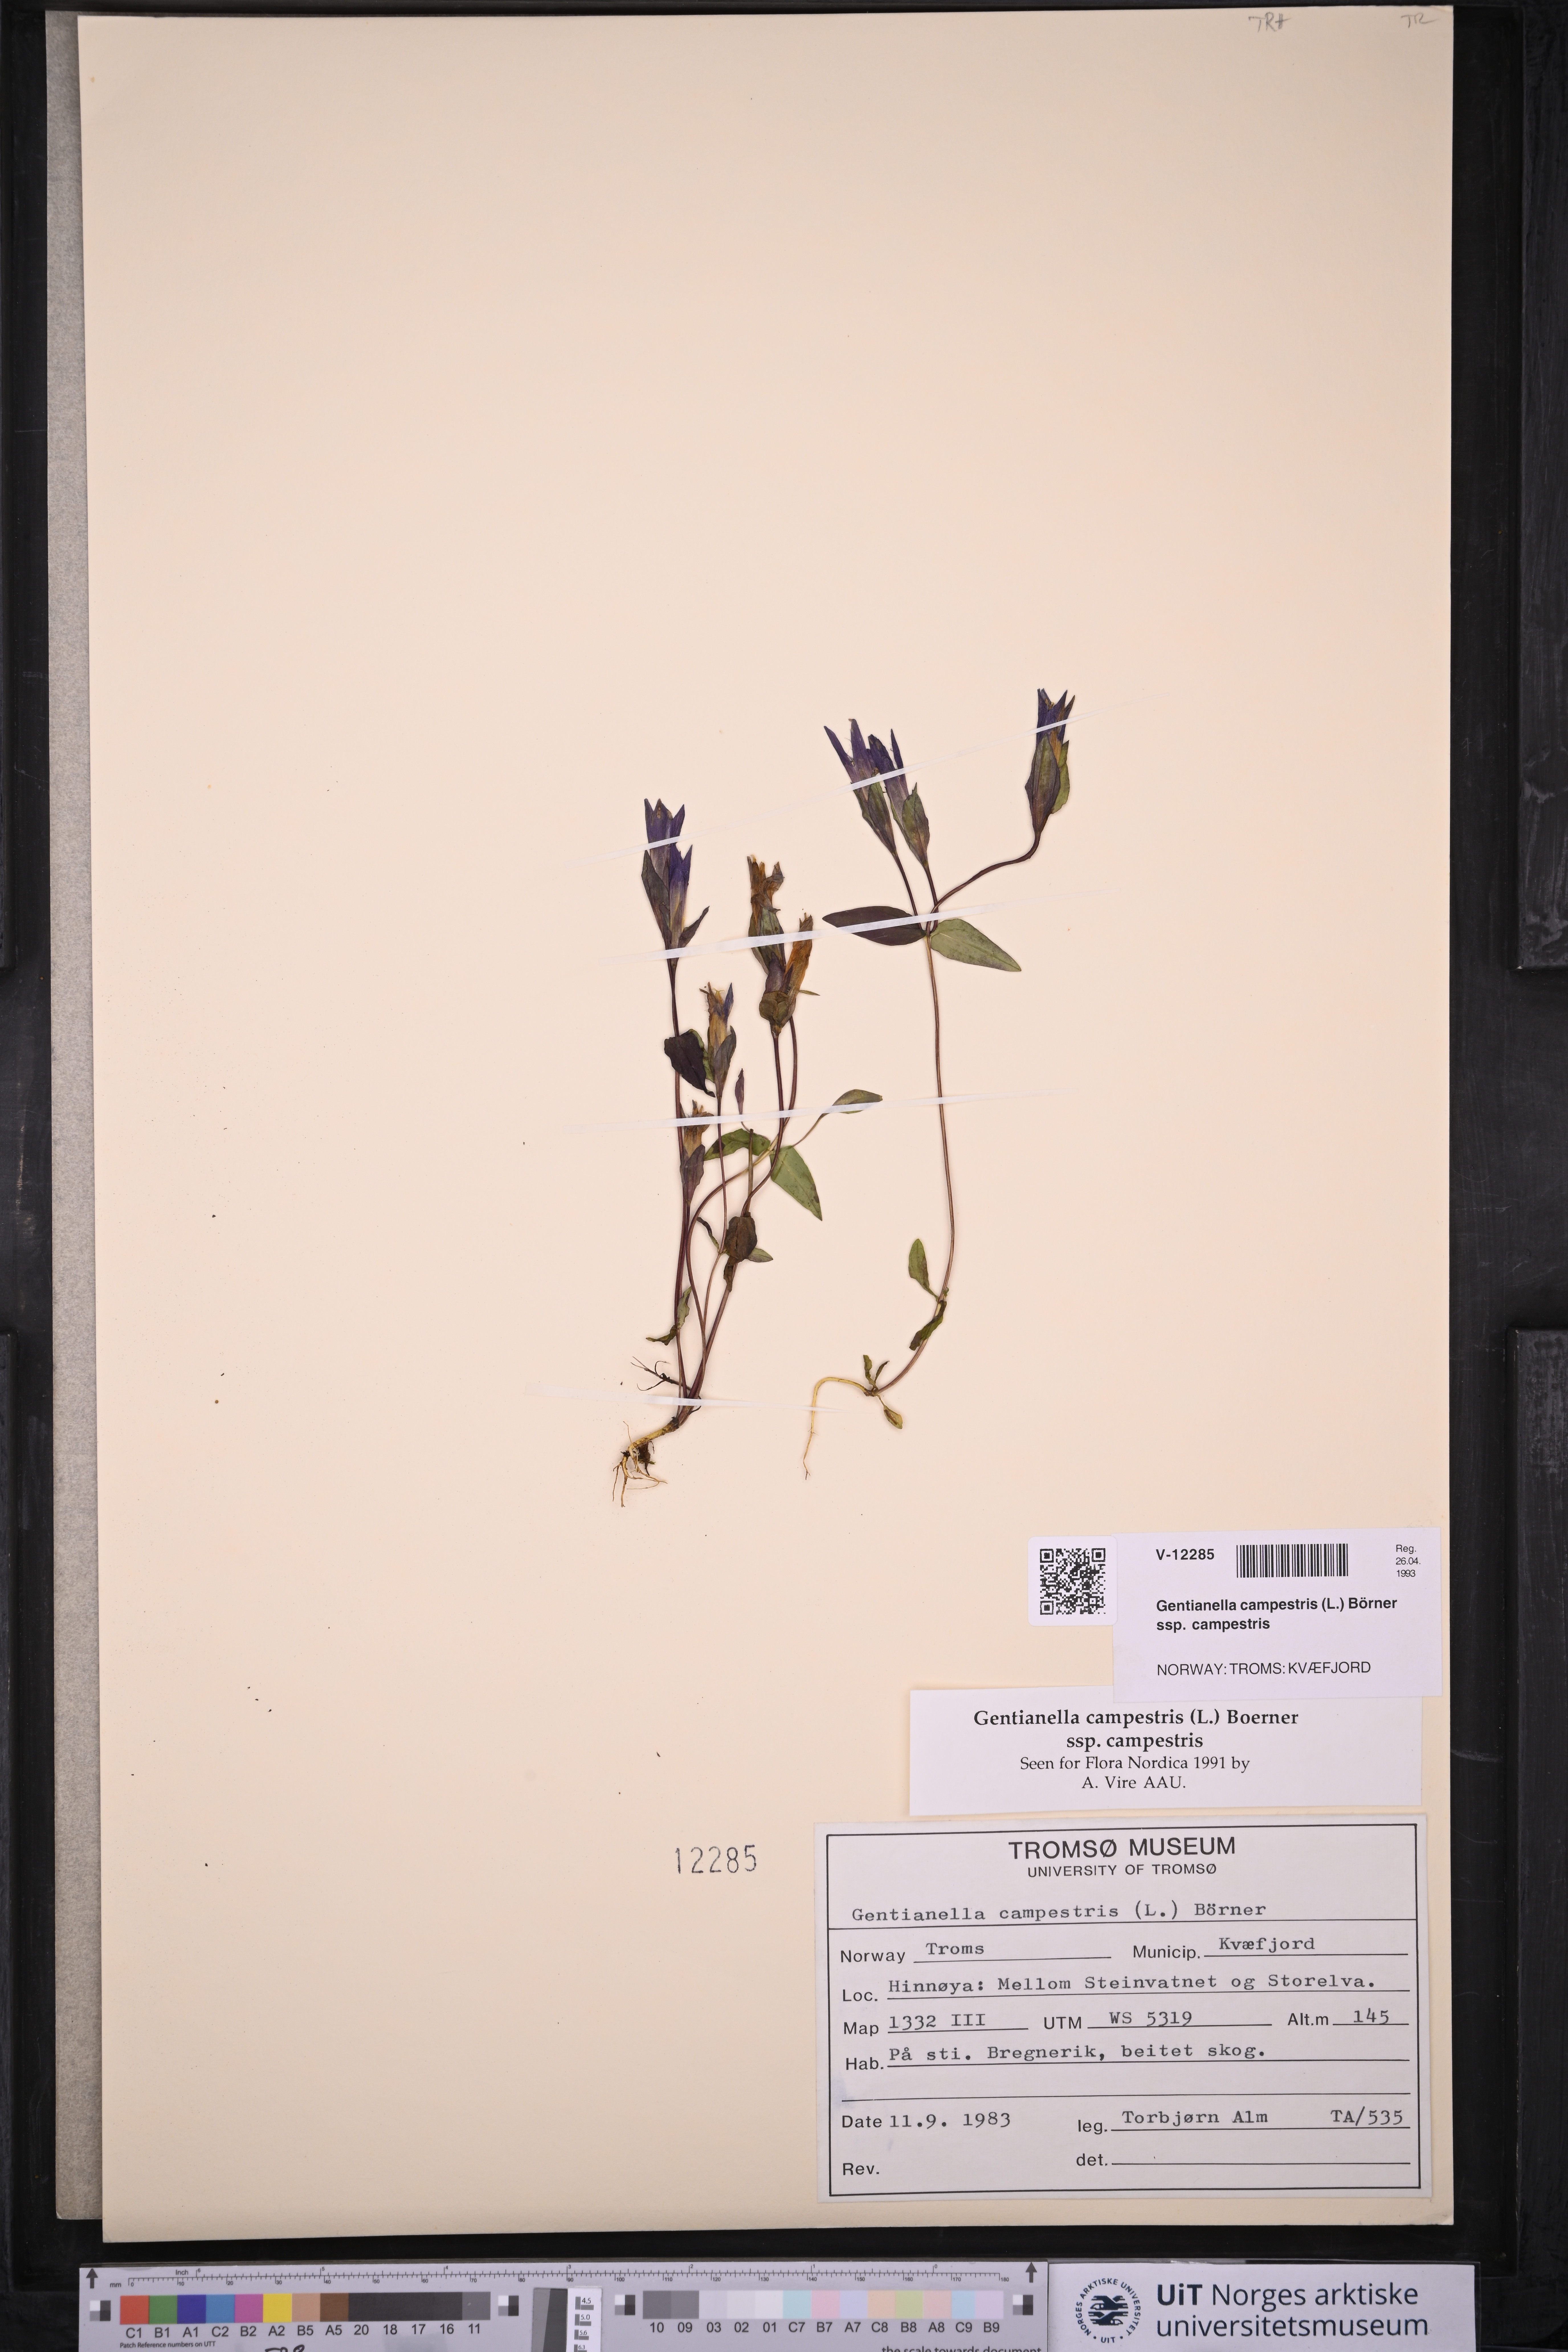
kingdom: Plantae
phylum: Tracheophyta
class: Magnoliopsida
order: Gentianales
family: Gentianaceae
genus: Gentianella
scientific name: Gentianella campestris
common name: Field gentian
